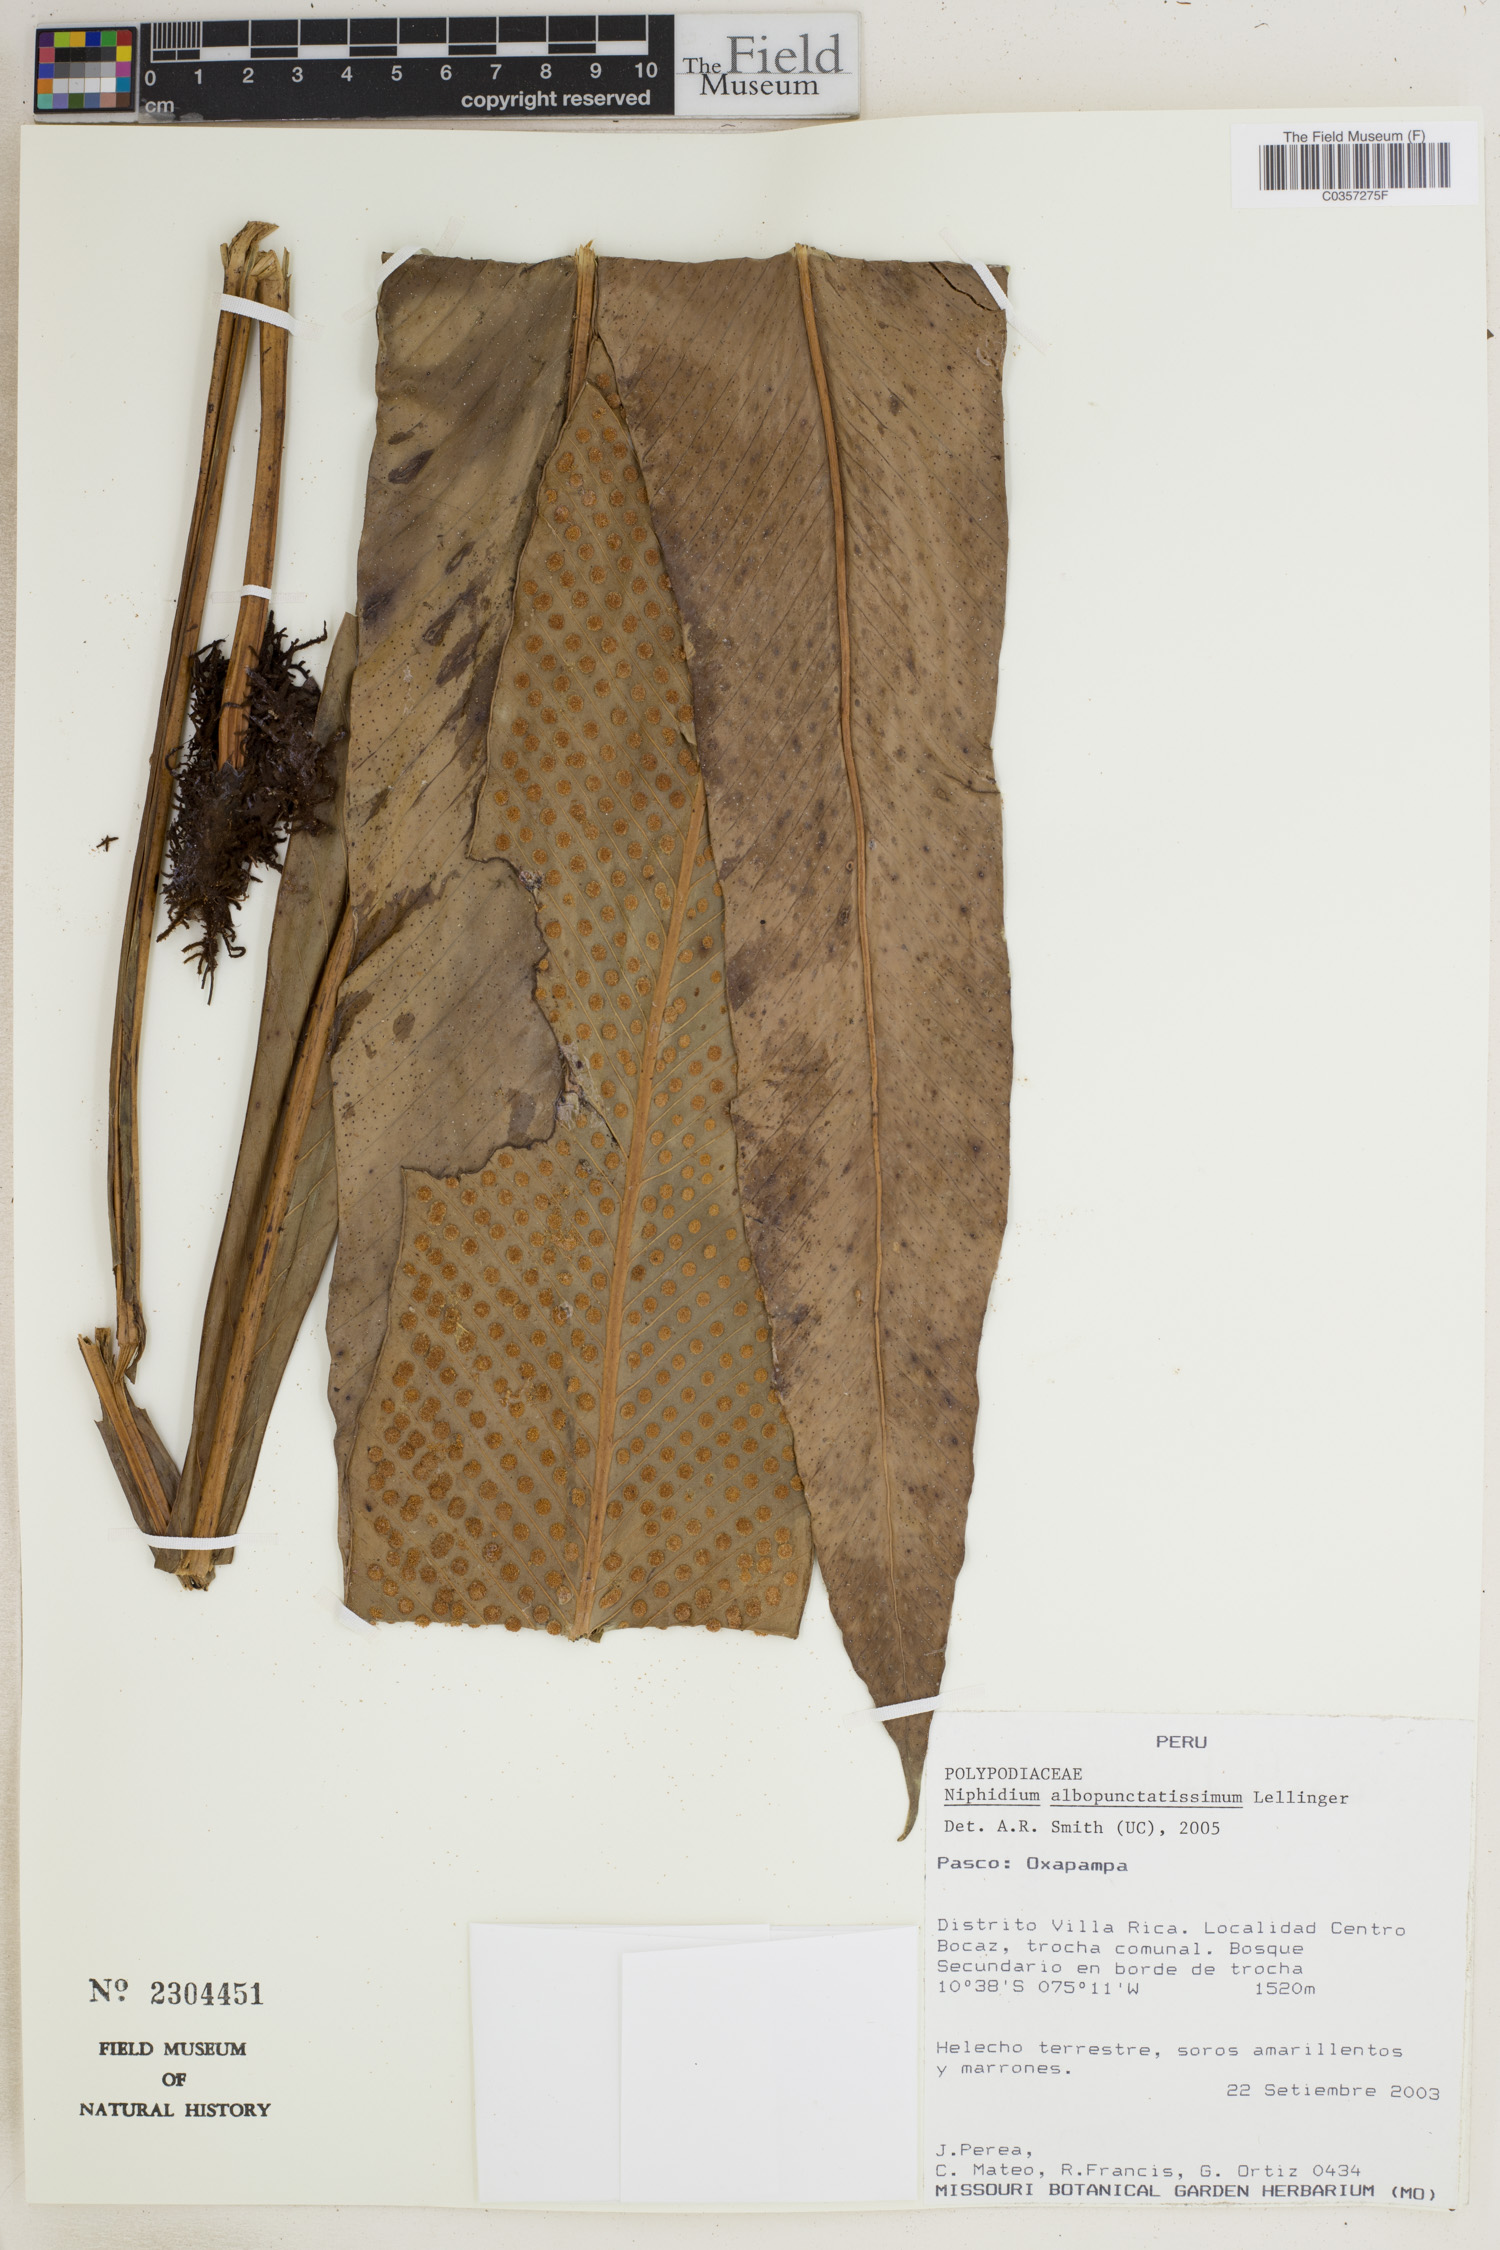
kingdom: Plantae
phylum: Tracheophyta
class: Polypodiopsida
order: Polypodiales
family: Polypodiaceae
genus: Niphidium
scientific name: Niphidium albopunctatissimum
